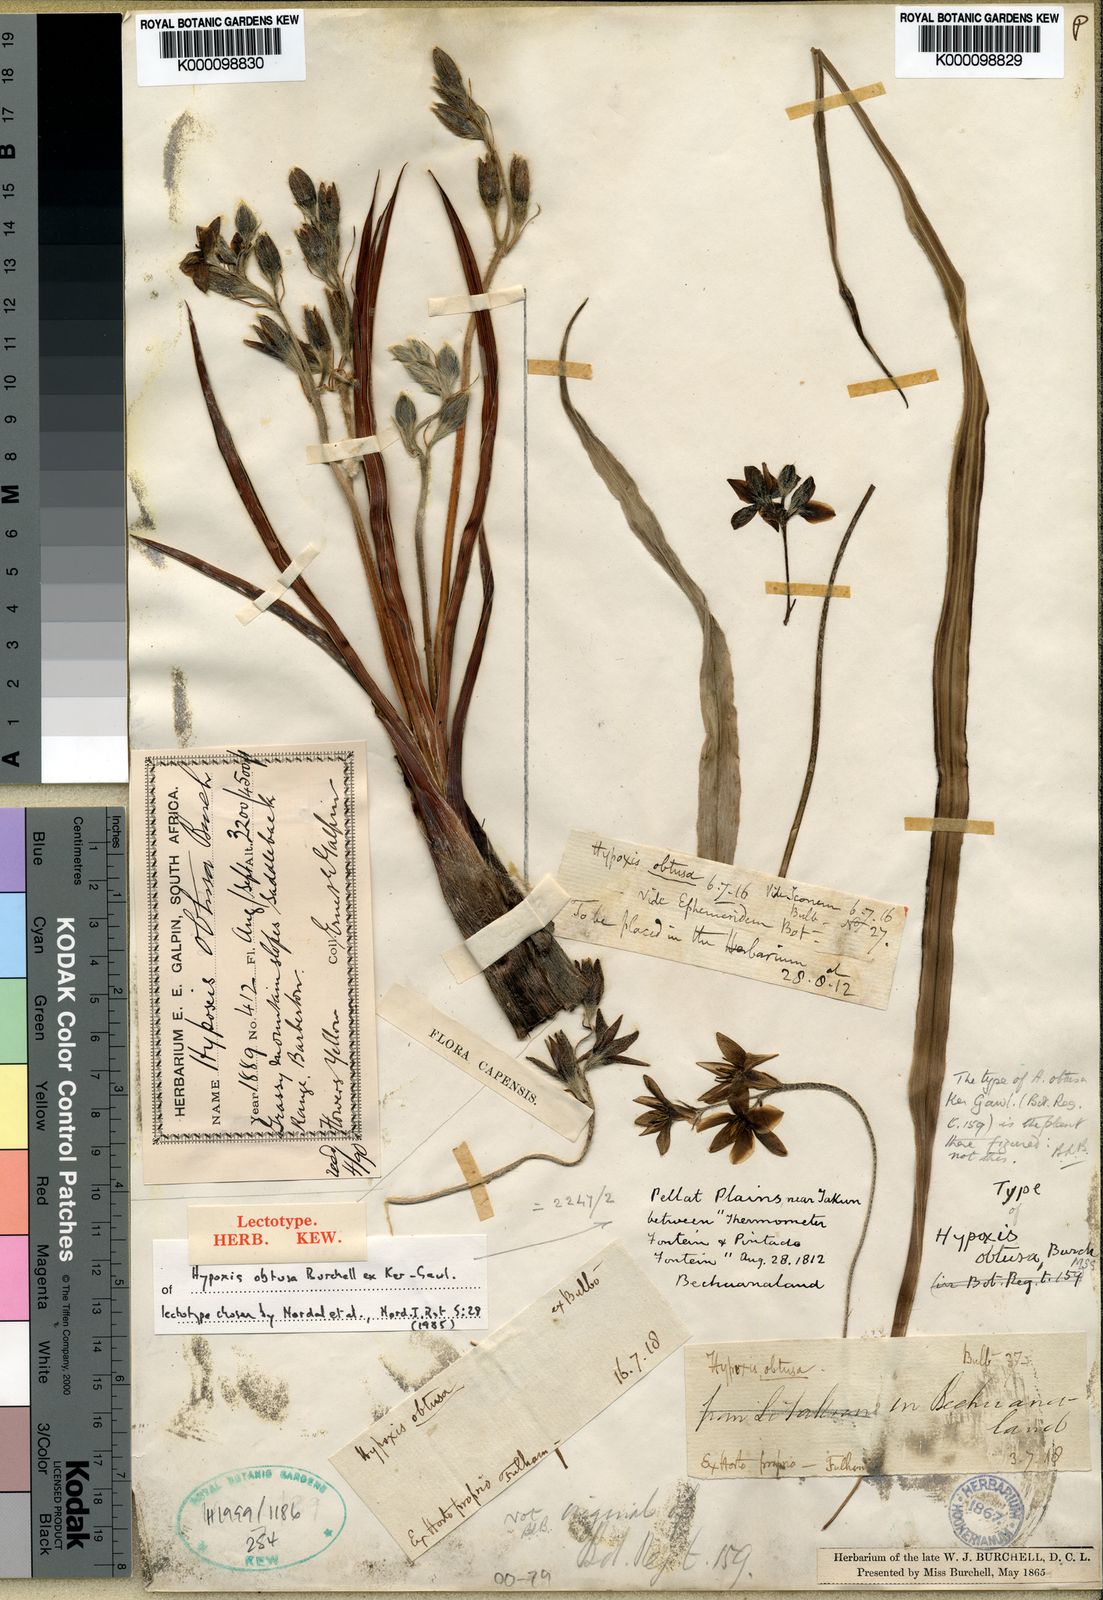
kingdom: Plantae
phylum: Tracheophyta
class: Liliopsida
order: Asparagales
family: Hypoxidaceae
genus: Hypoxis
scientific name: Hypoxis obtusa
